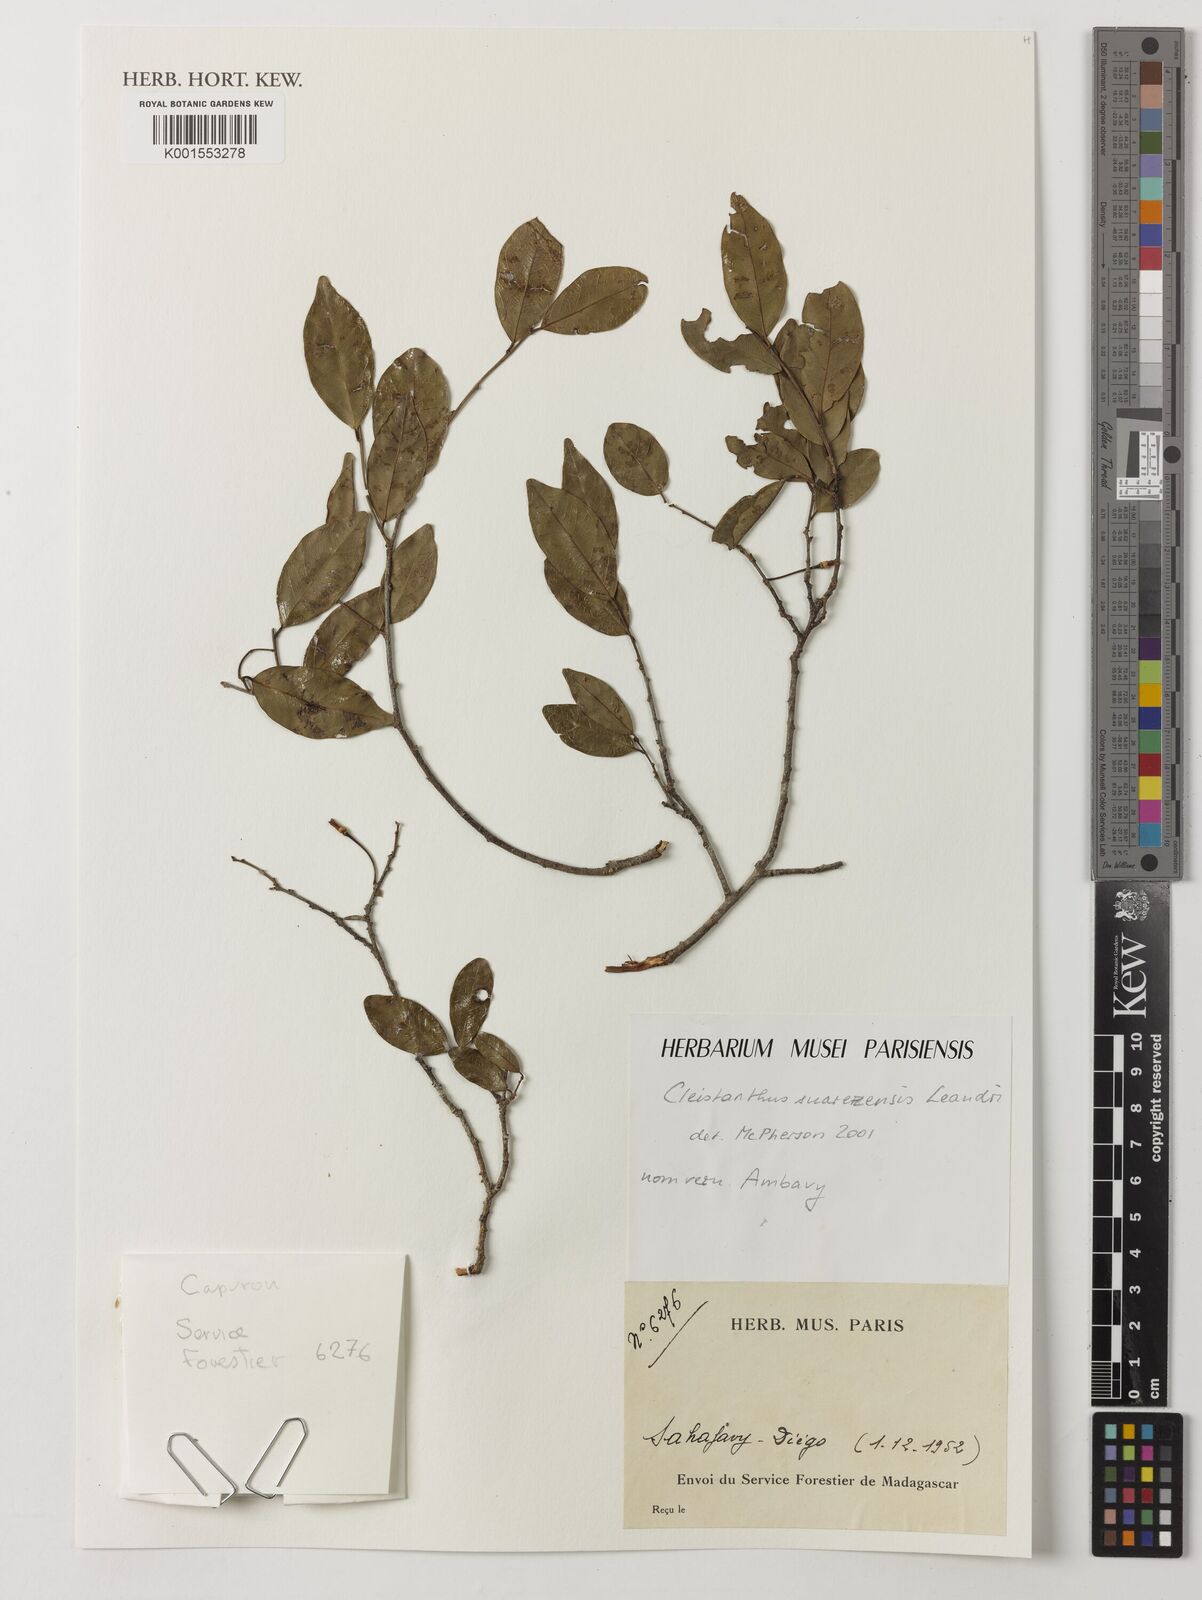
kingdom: Plantae
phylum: Tracheophyta
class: Magnoliopsida
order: Malpighiales
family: Phyllanthaceae
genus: Cleistanthus
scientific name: Cleistanthus suarezensis
